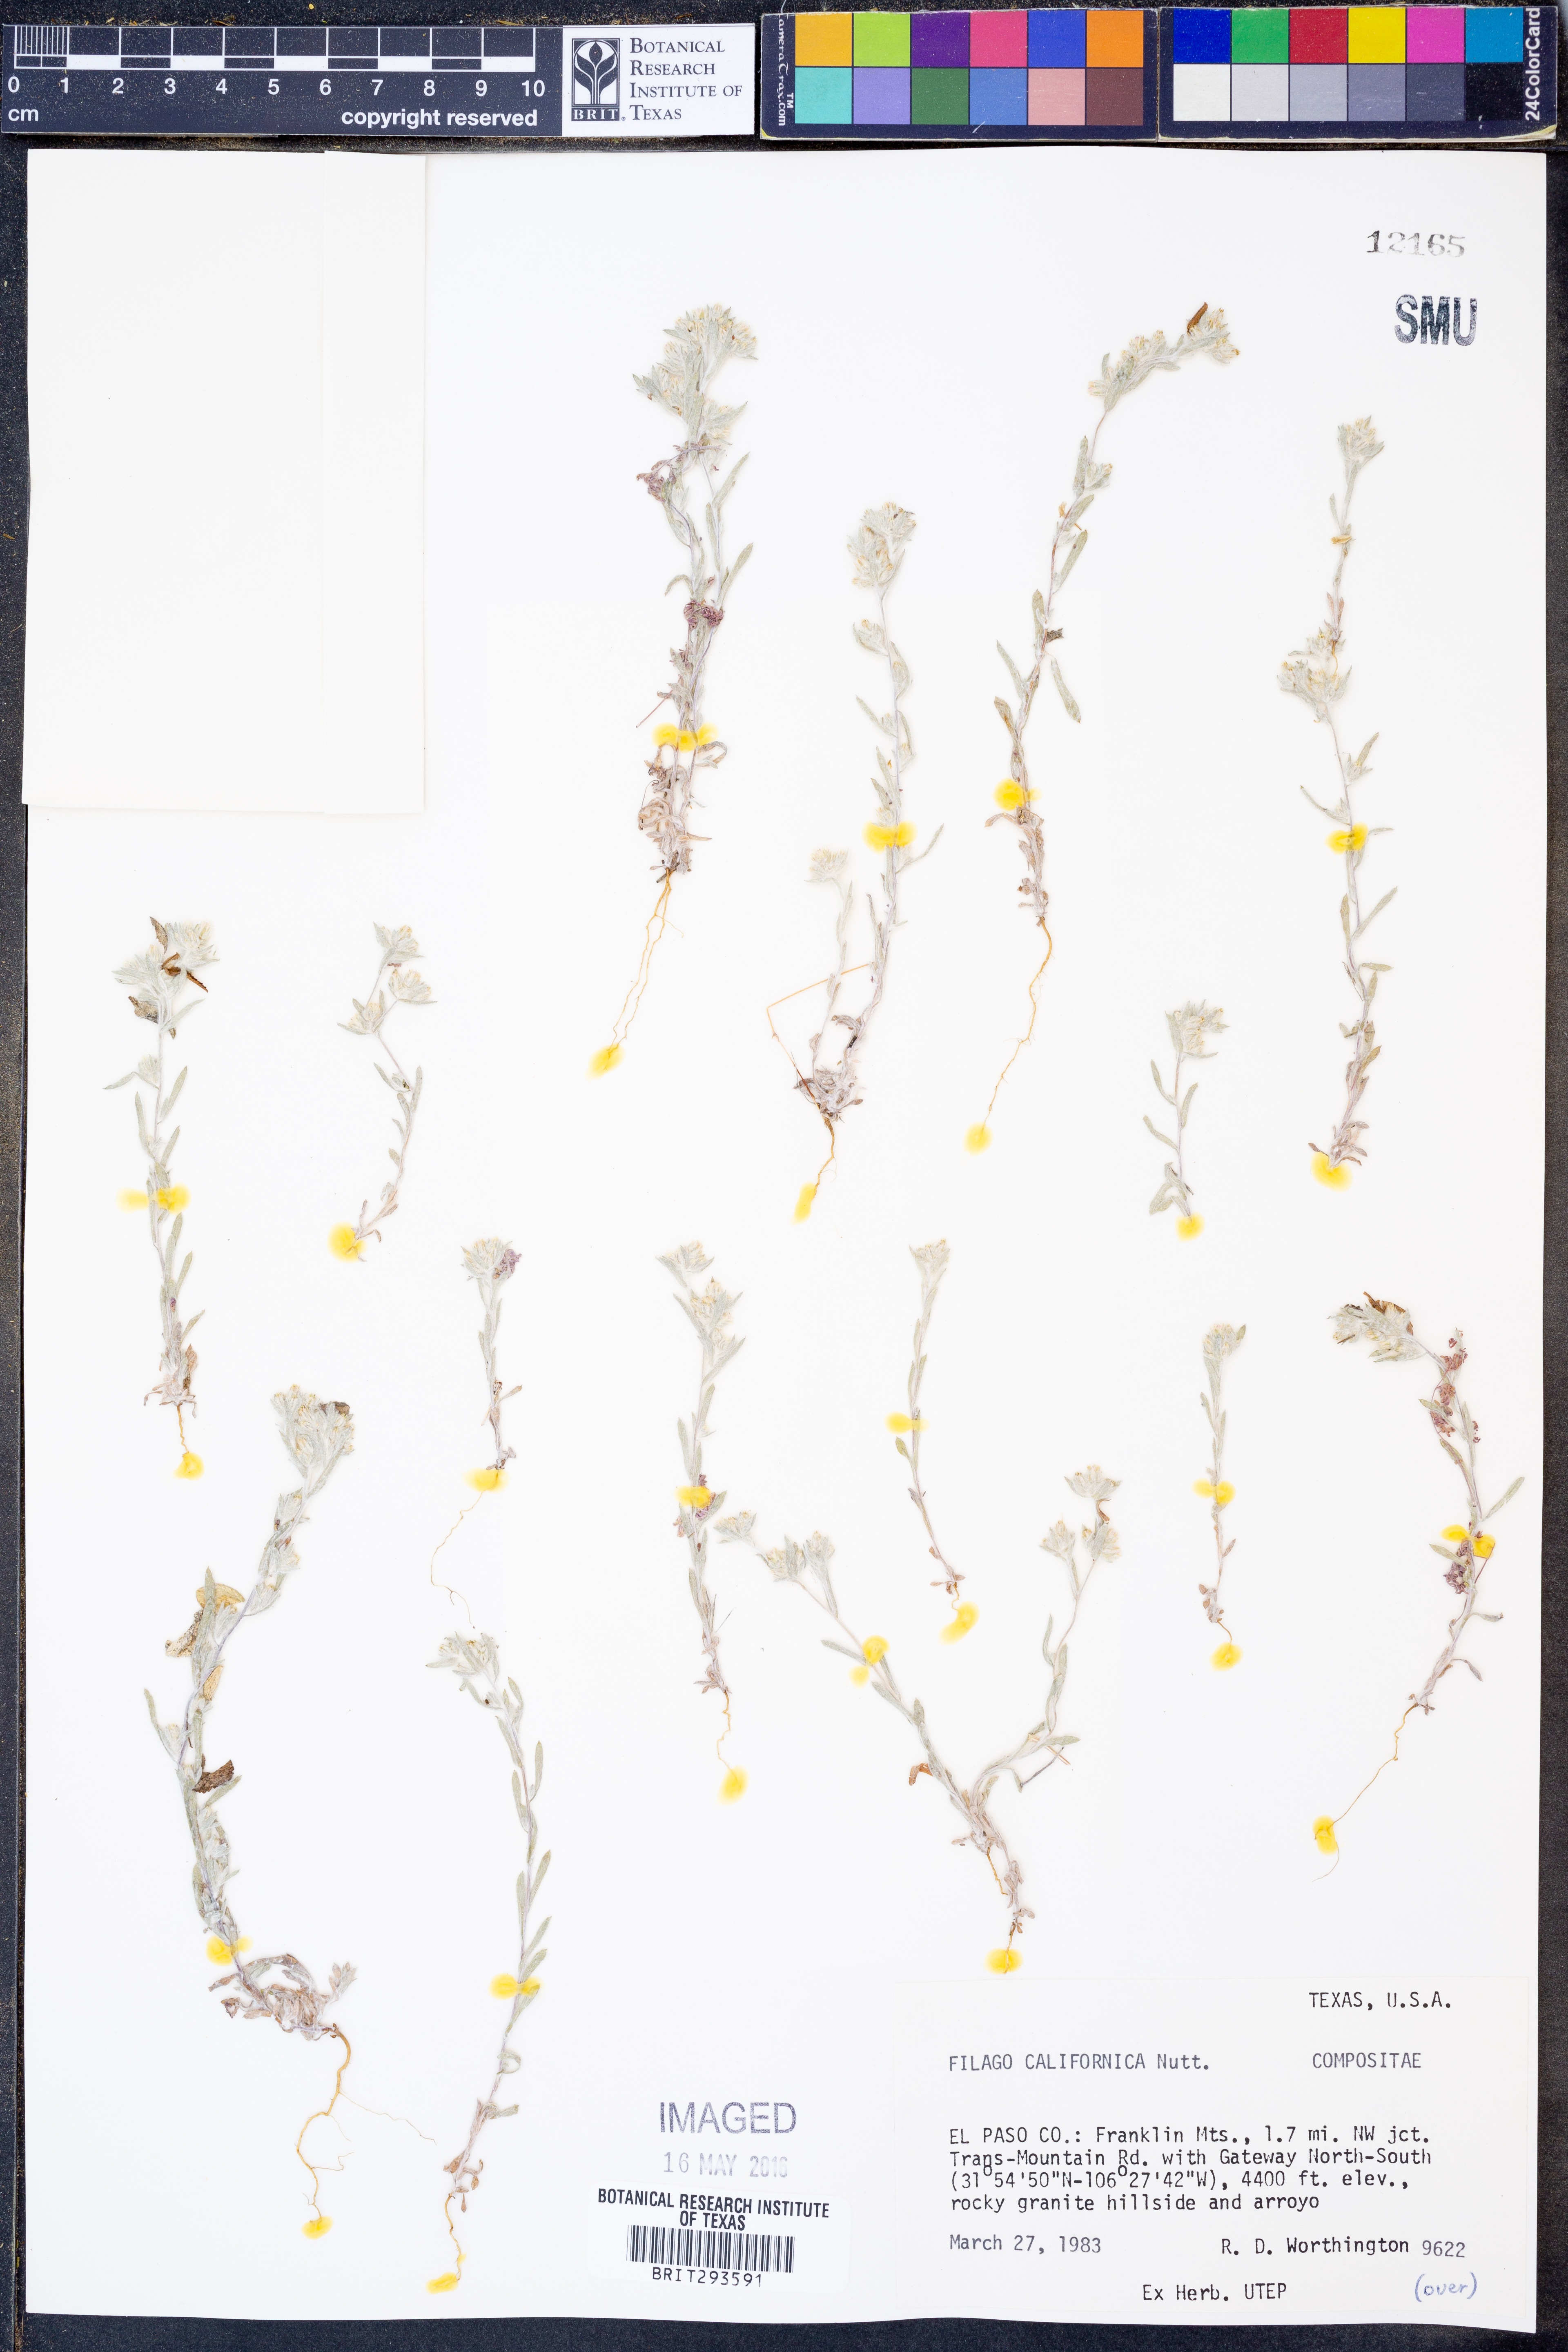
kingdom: Plantae
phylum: Tracheophyta
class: Magnoliopsida
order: Asterales
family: Asteraceae
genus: Logfia
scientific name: Logfia californica
